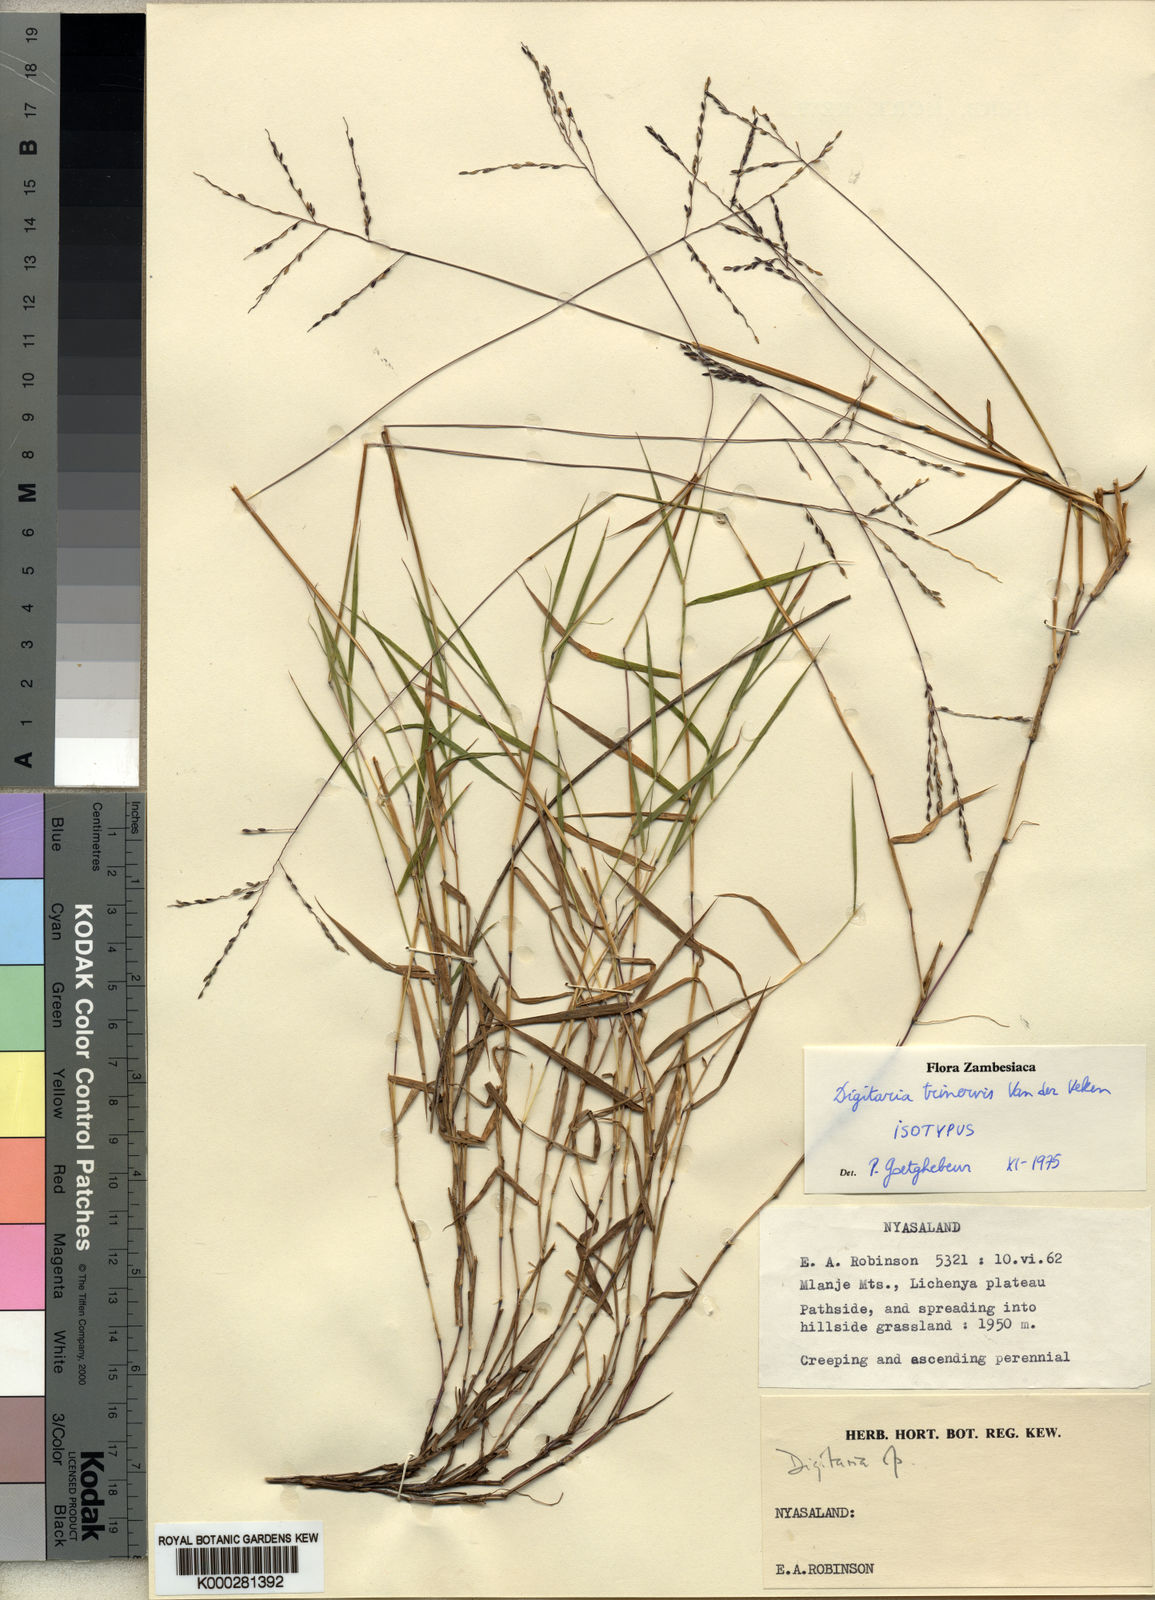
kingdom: Plantae
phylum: Tracheophyta
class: Liliopsida
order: Poales
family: Poaceae
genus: Digitaria
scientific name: Digitaria trinervis
